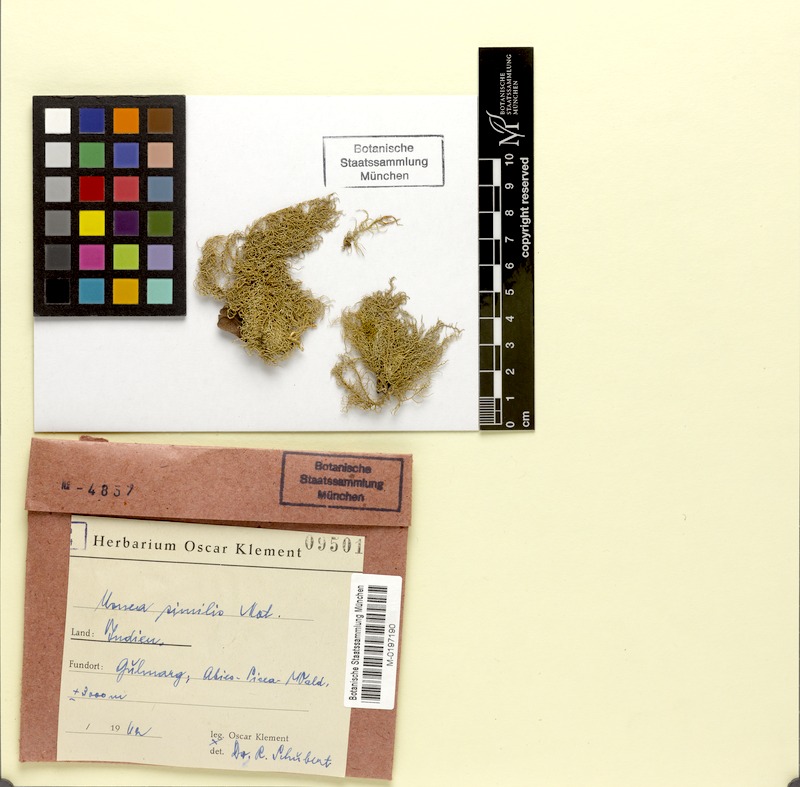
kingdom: Fungi
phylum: Ascomycota
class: Lecanoromycetes
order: Lecanorales
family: Parmeliaceae
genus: Usnea
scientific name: Usnea subfloridana
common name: Boreal beard lichen
